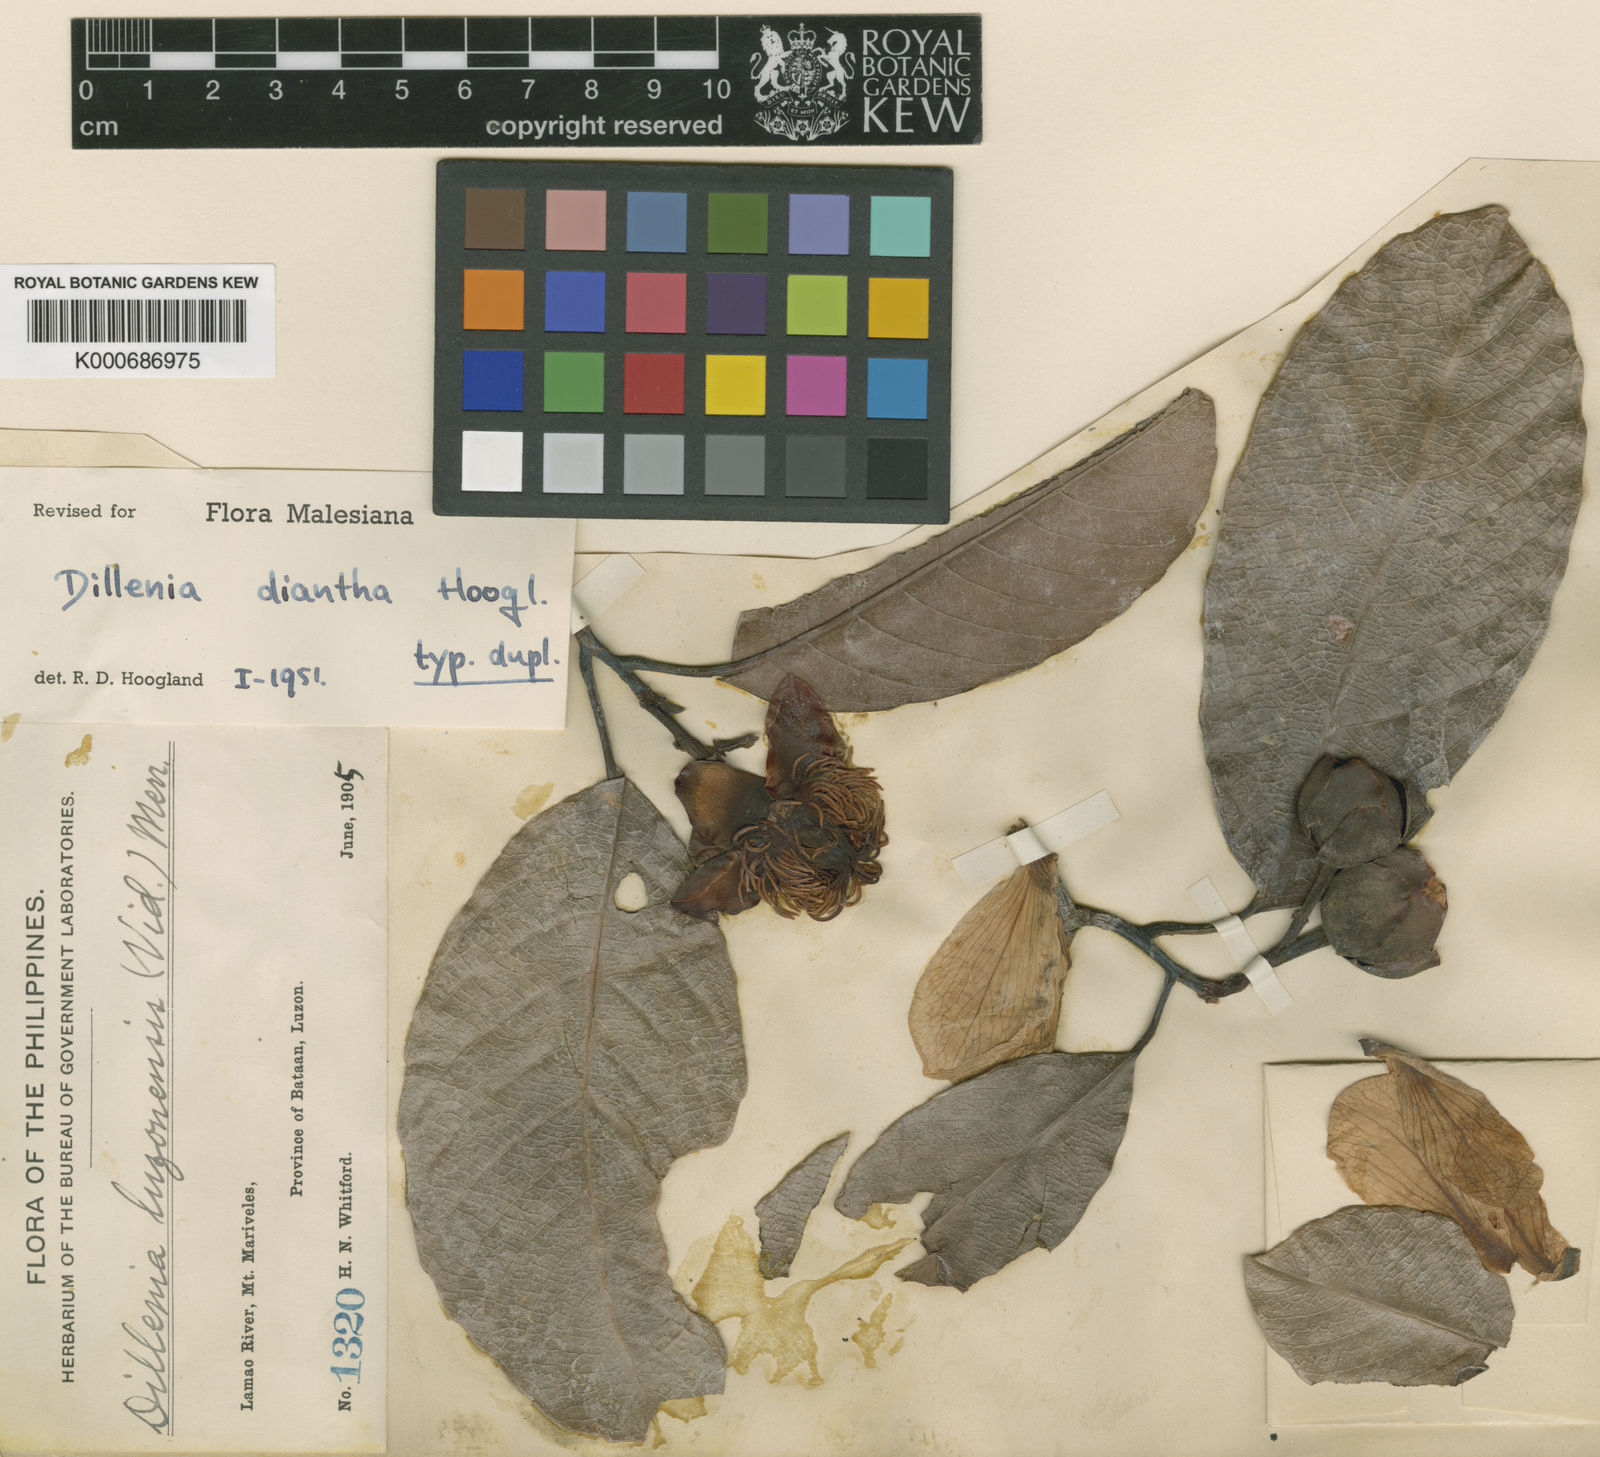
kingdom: Plantae
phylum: Tracheophyta
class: Magnoliopsida
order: Dilleniales
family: Dilleniaceae
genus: Dillenia
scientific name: Dillenia luzoniensis
